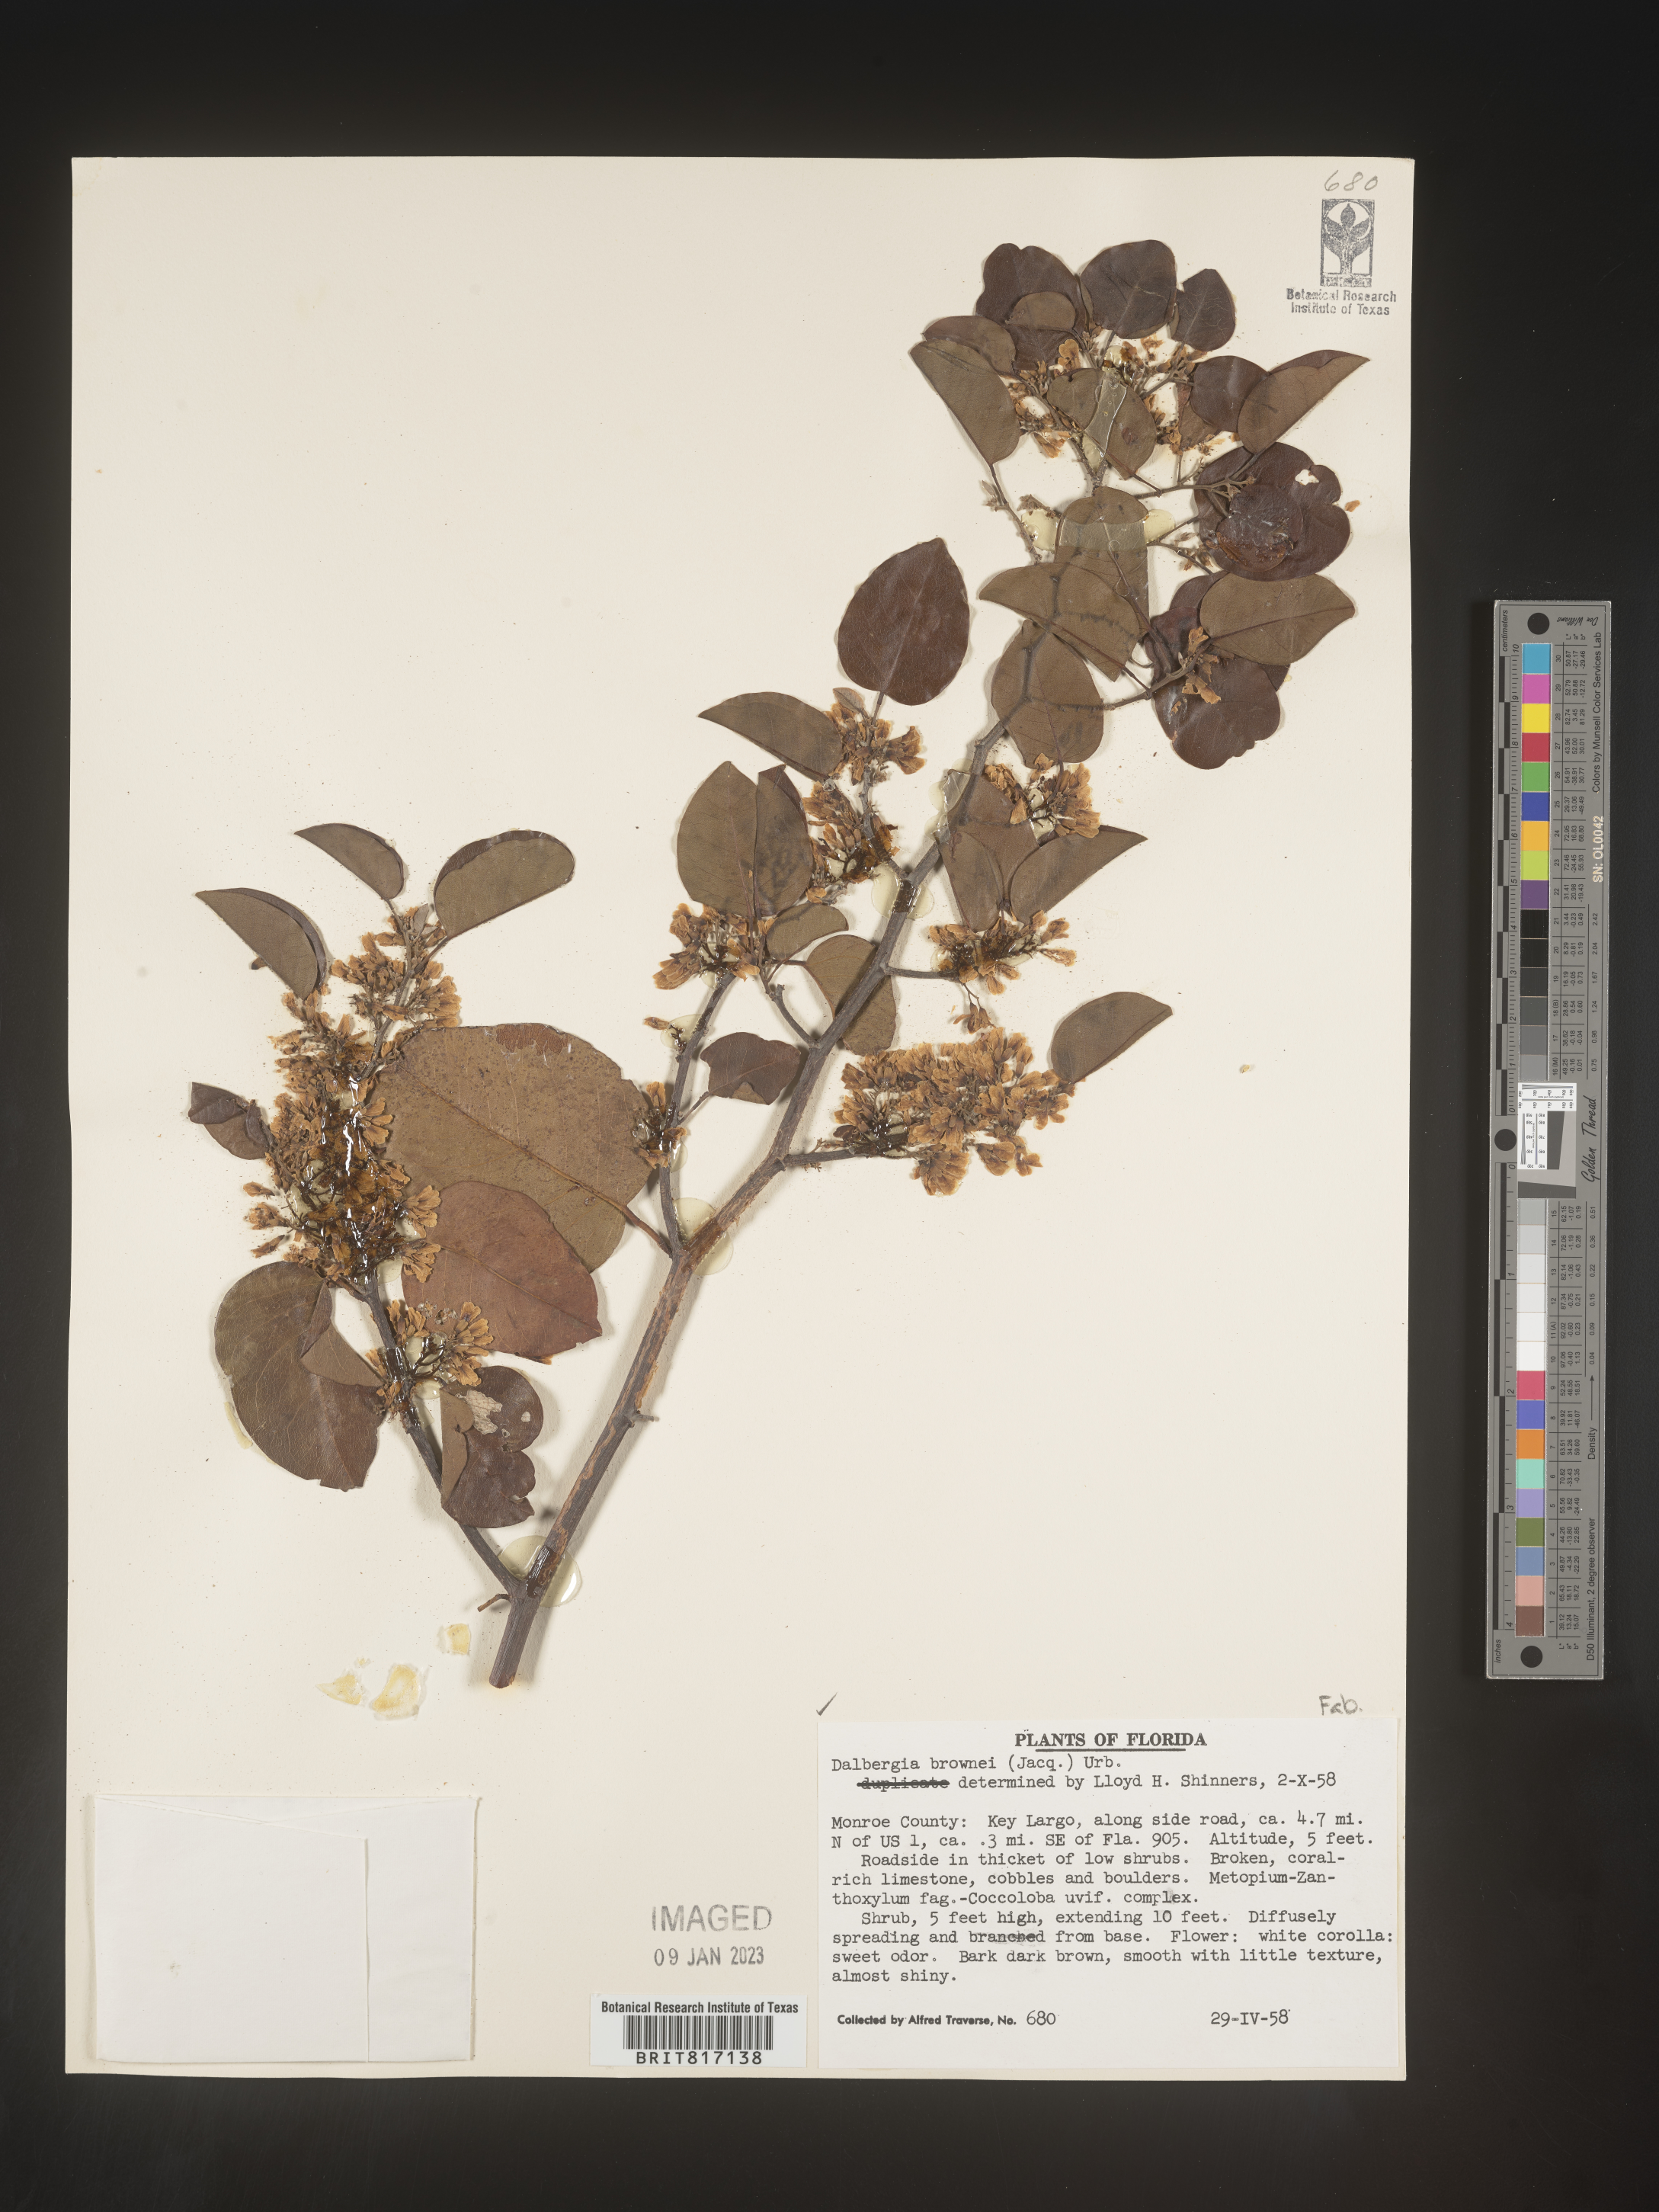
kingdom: Plantae
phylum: Tracheophyta
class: Magnoliopsida
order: Fabales
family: Fabaceae
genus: Dalbergia
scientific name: Dalbergia
